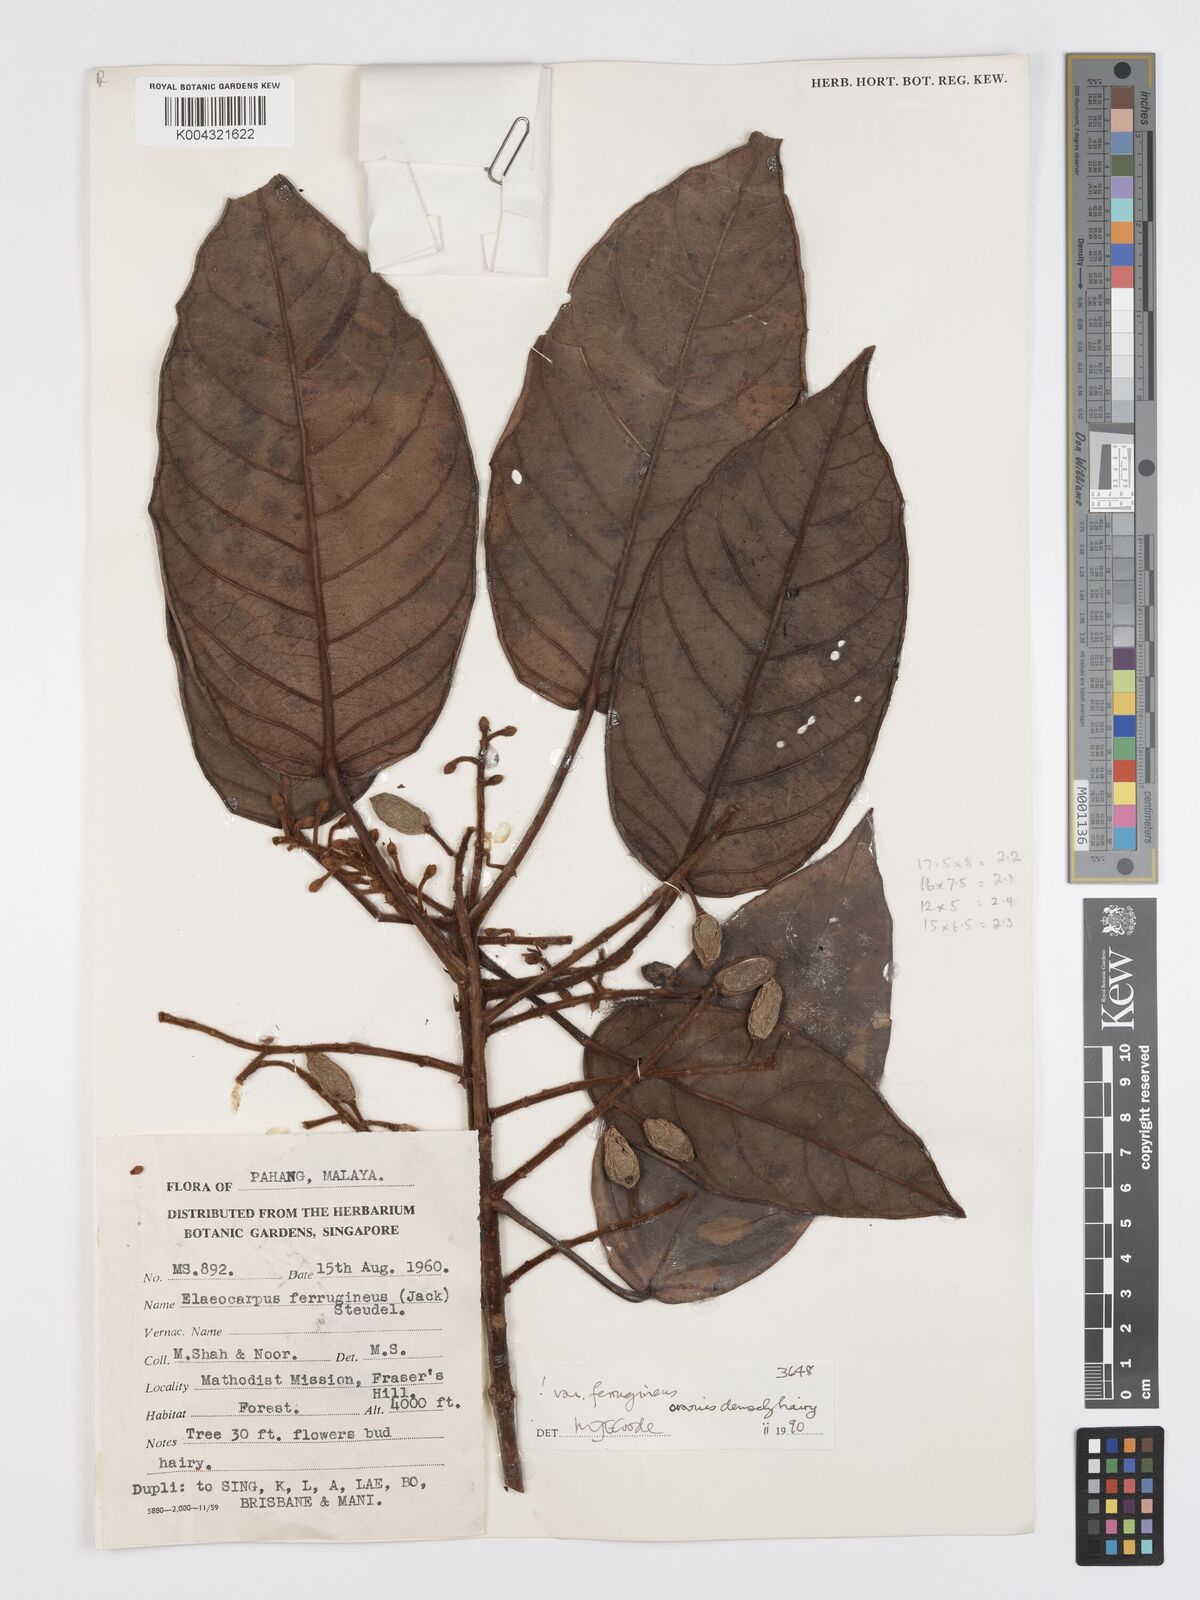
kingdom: Plantae
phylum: Tracheophyta
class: Magnoliopsida
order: Oxalidales
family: Elaeocarpaceae
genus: Elaeocarpus
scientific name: Elaeocarpus ferrugineus
